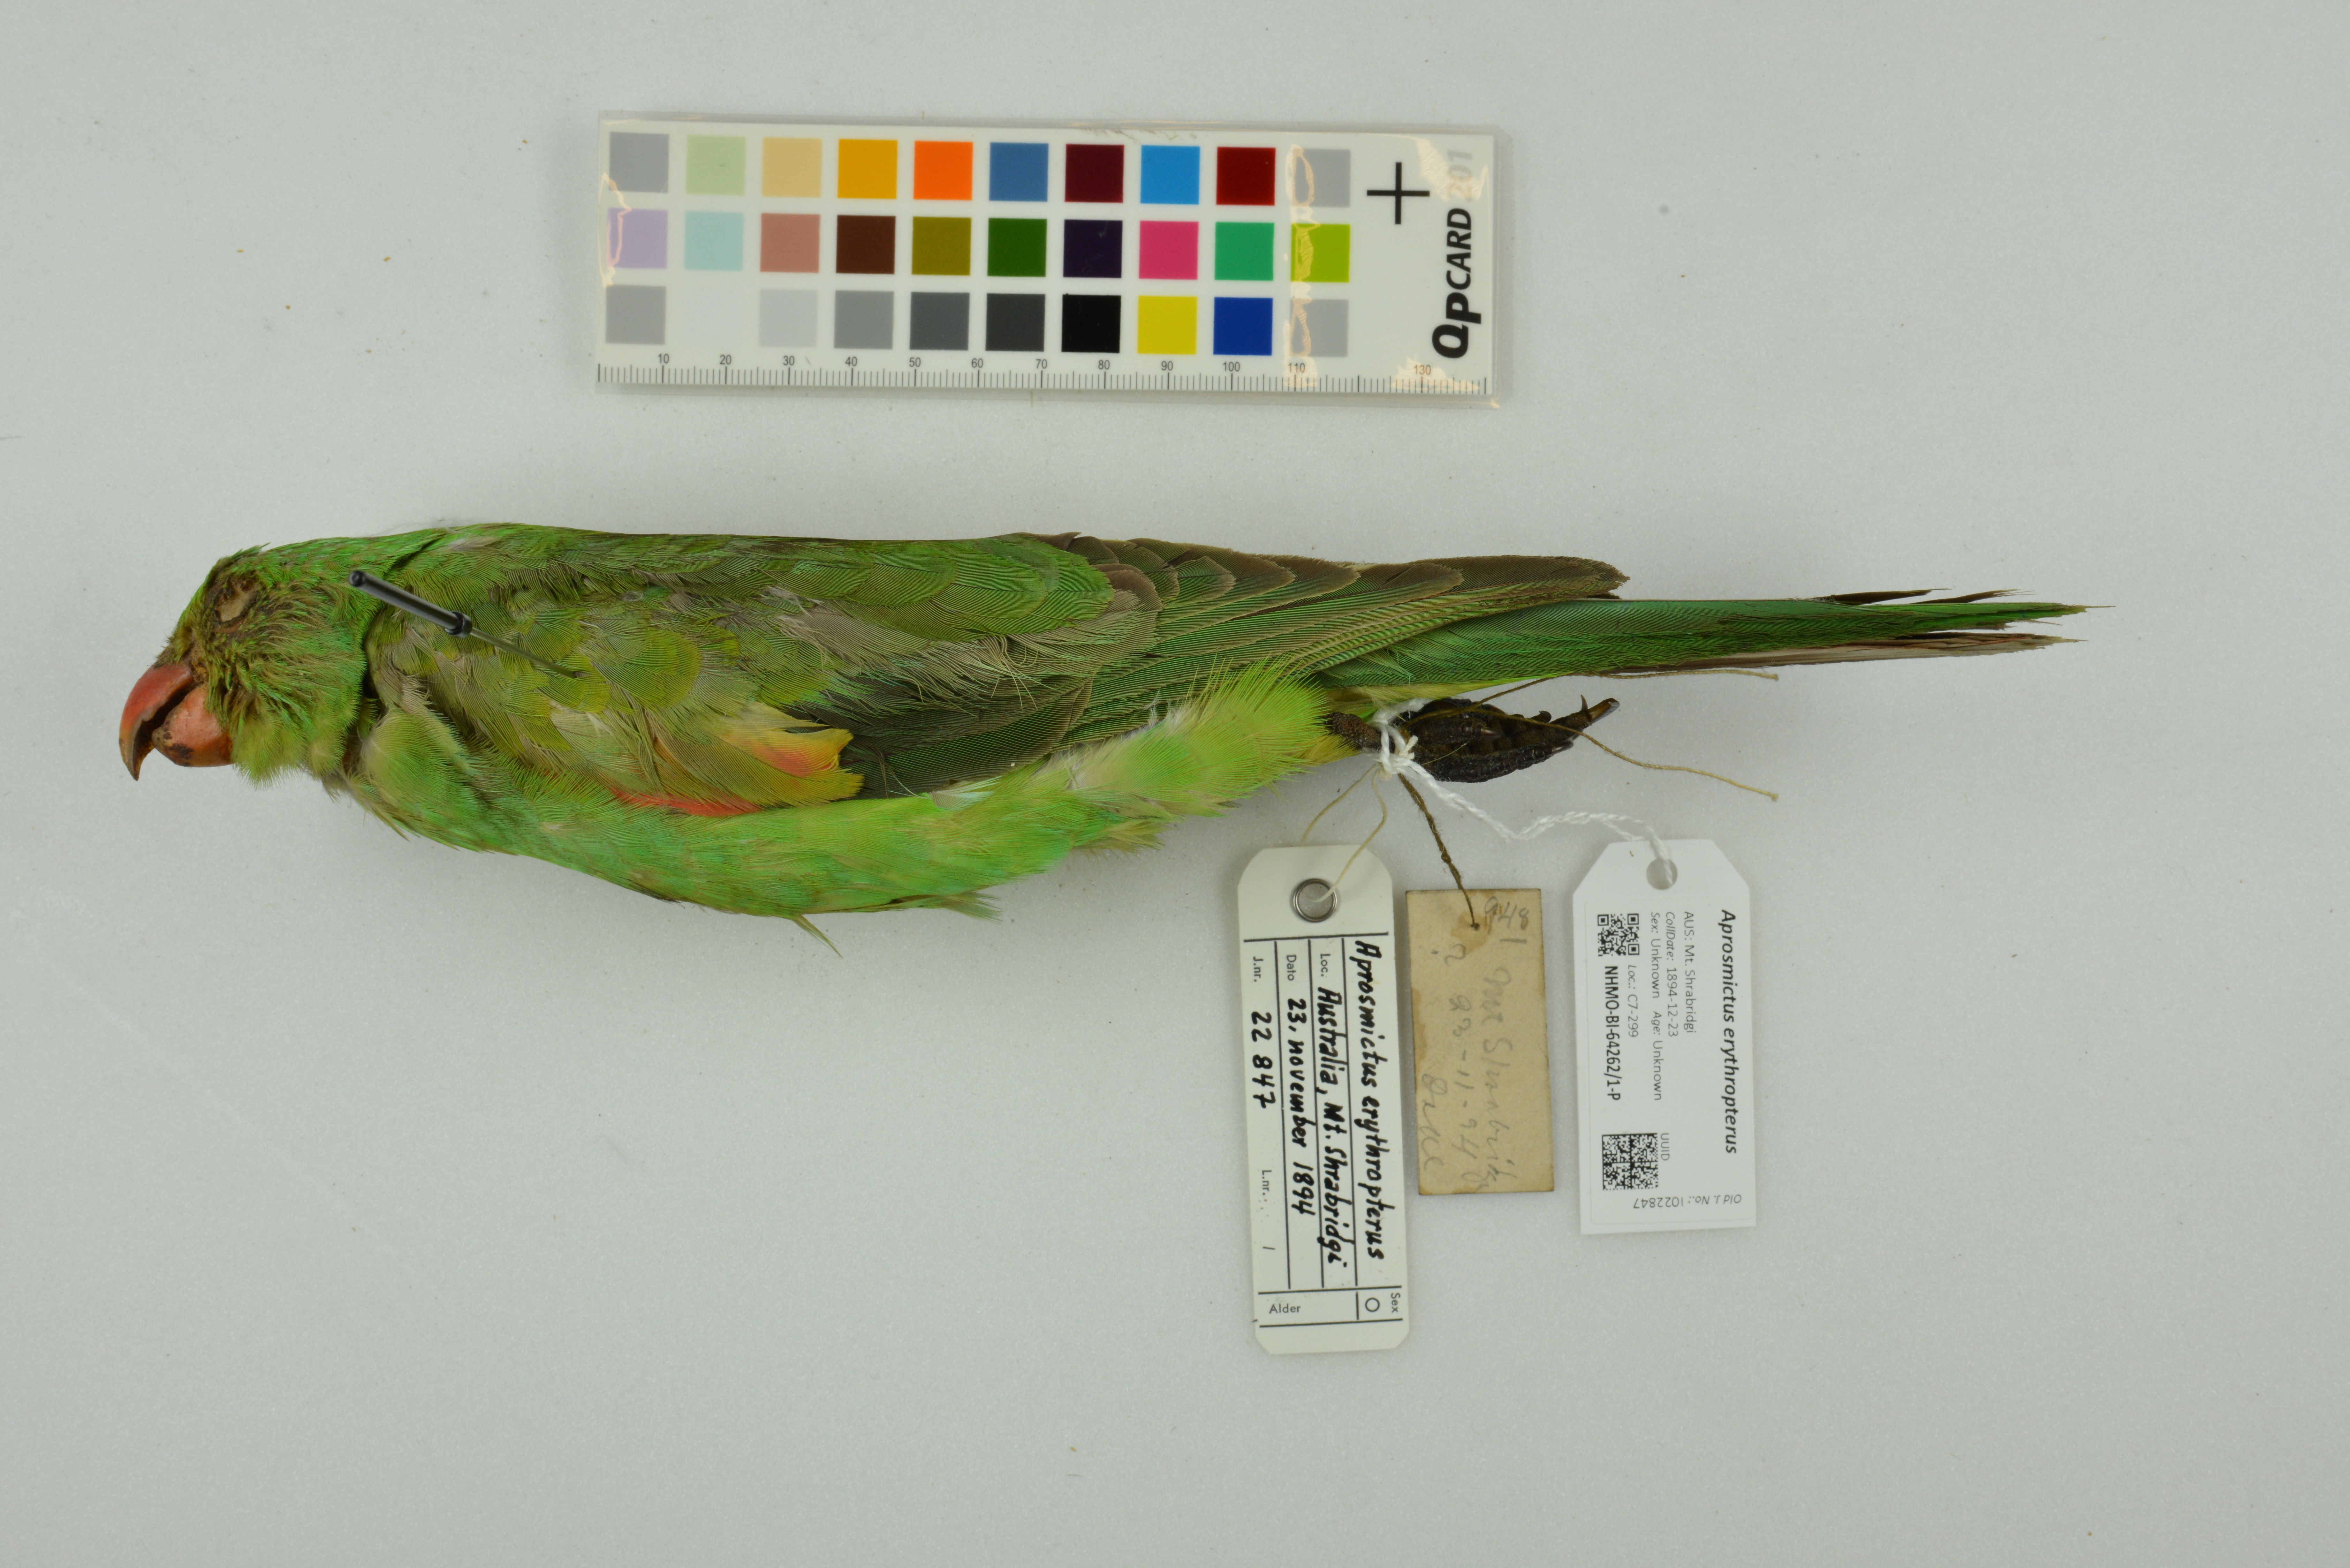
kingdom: Animalia
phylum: Chordata
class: Aves
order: Psittaciformes
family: Psittacidae
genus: Aprosmictus
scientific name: Aprosmictus erythropterus
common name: Red-winged parrot
